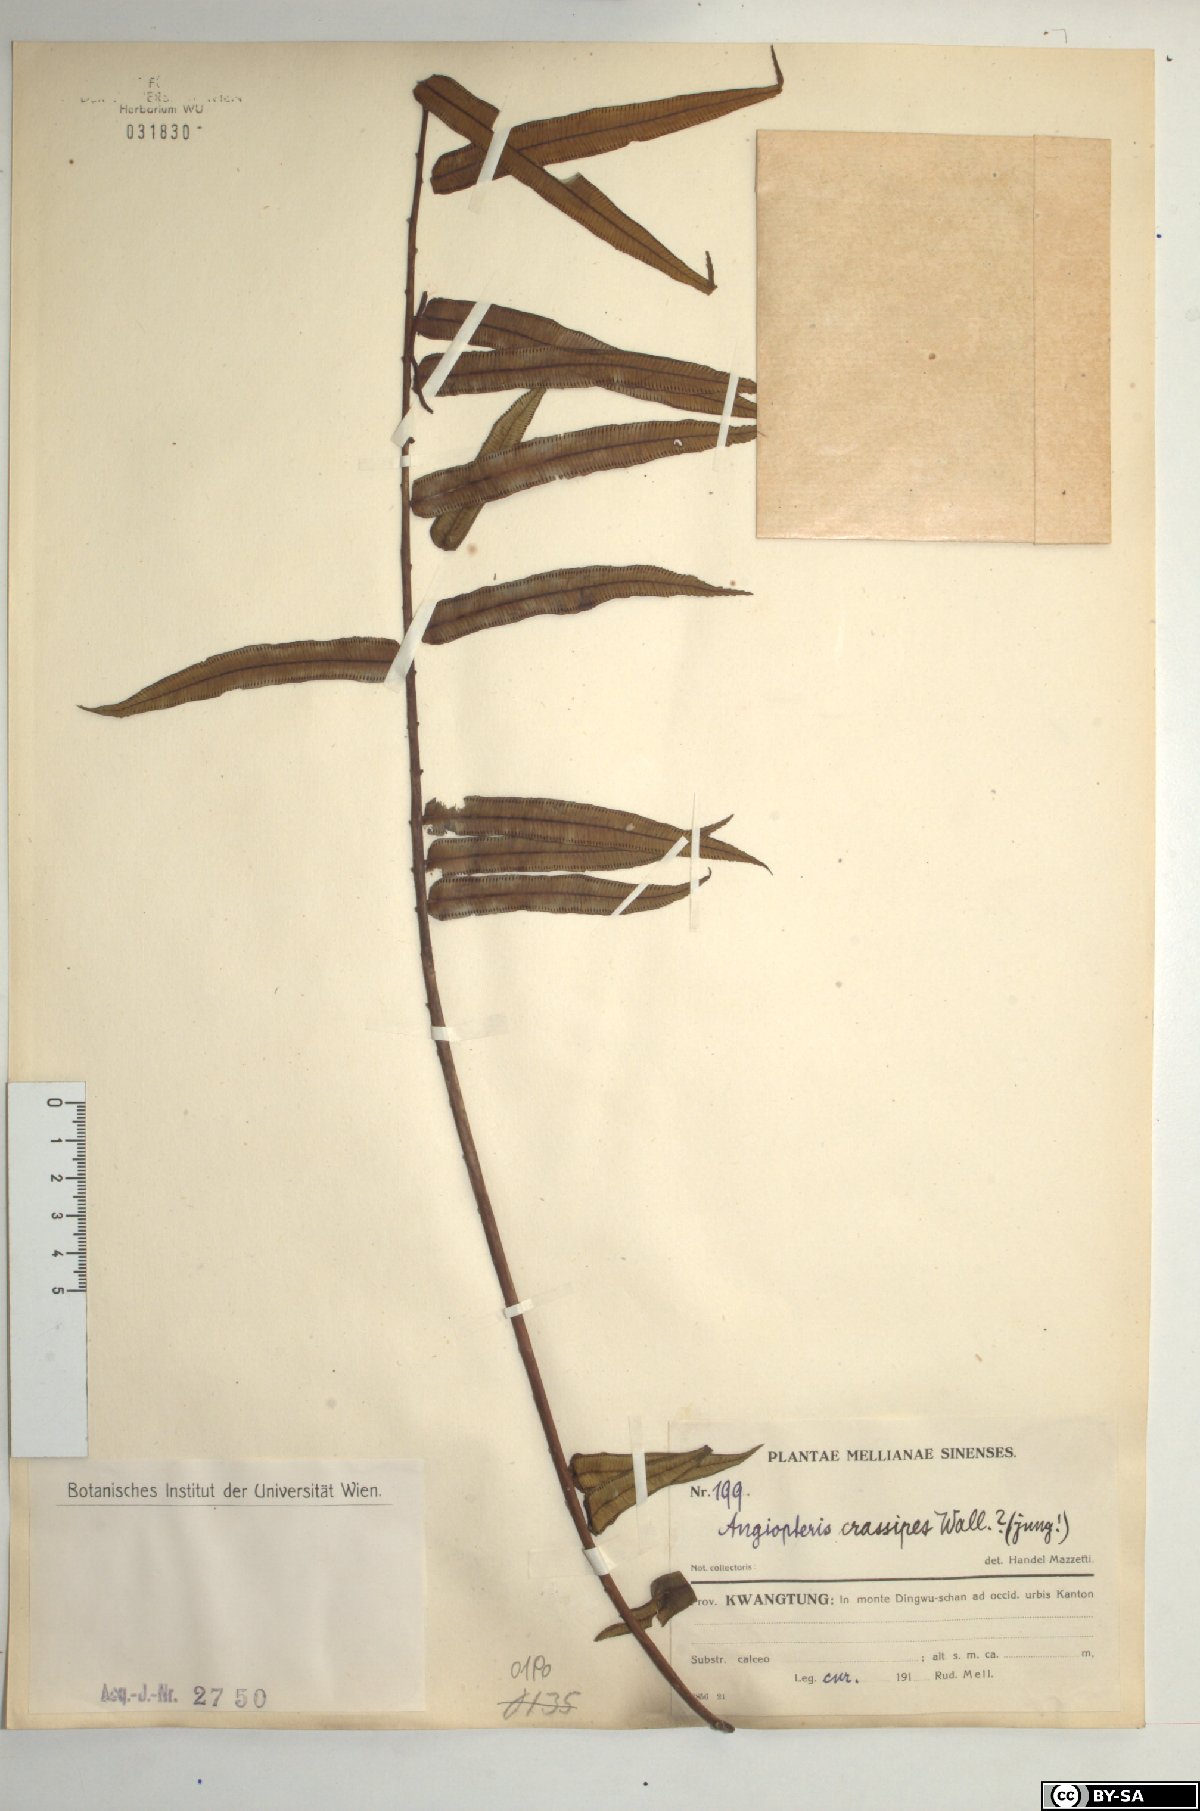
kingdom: Plantae
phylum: Tracheophyta
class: Polypodiopsida
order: Marattiales
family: Marattiaceae
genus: Angiopteris
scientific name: Angiopteris crassipes
